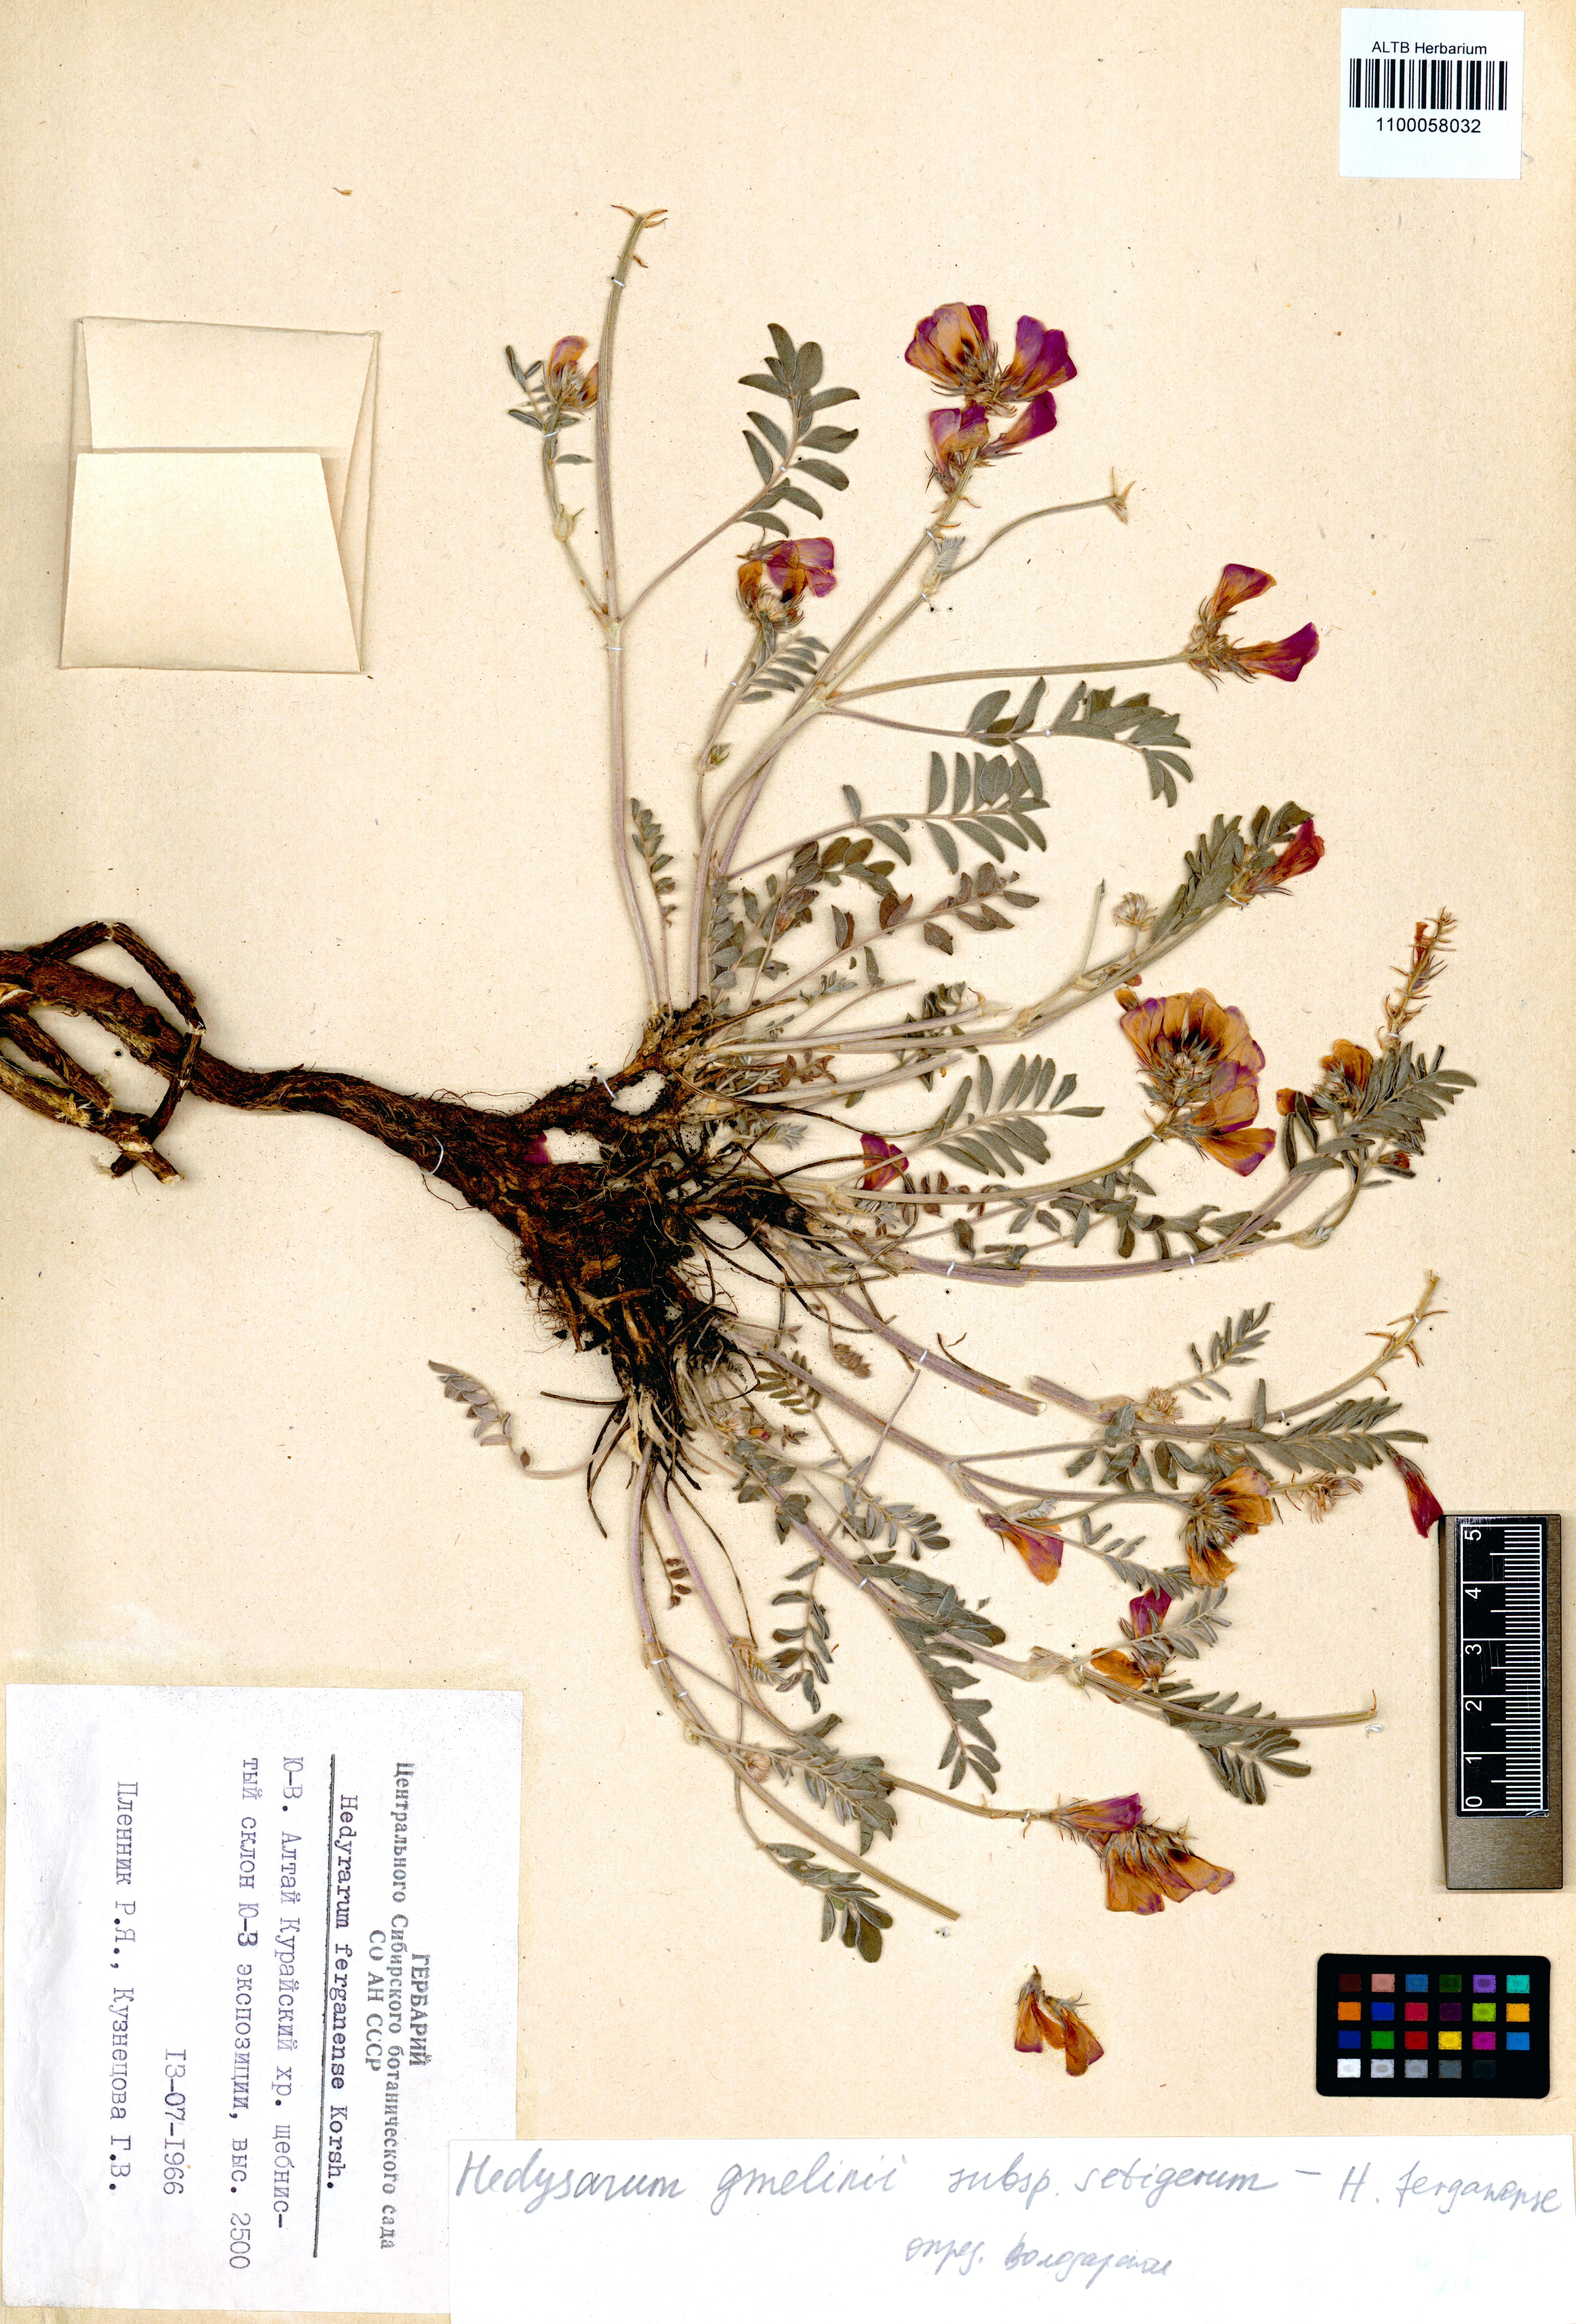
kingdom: Plantae
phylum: Tracheophyta
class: Magnoliopsida
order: Fabales
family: Fabaceae
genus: Hedysarum
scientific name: Hedysarum gmelinii
